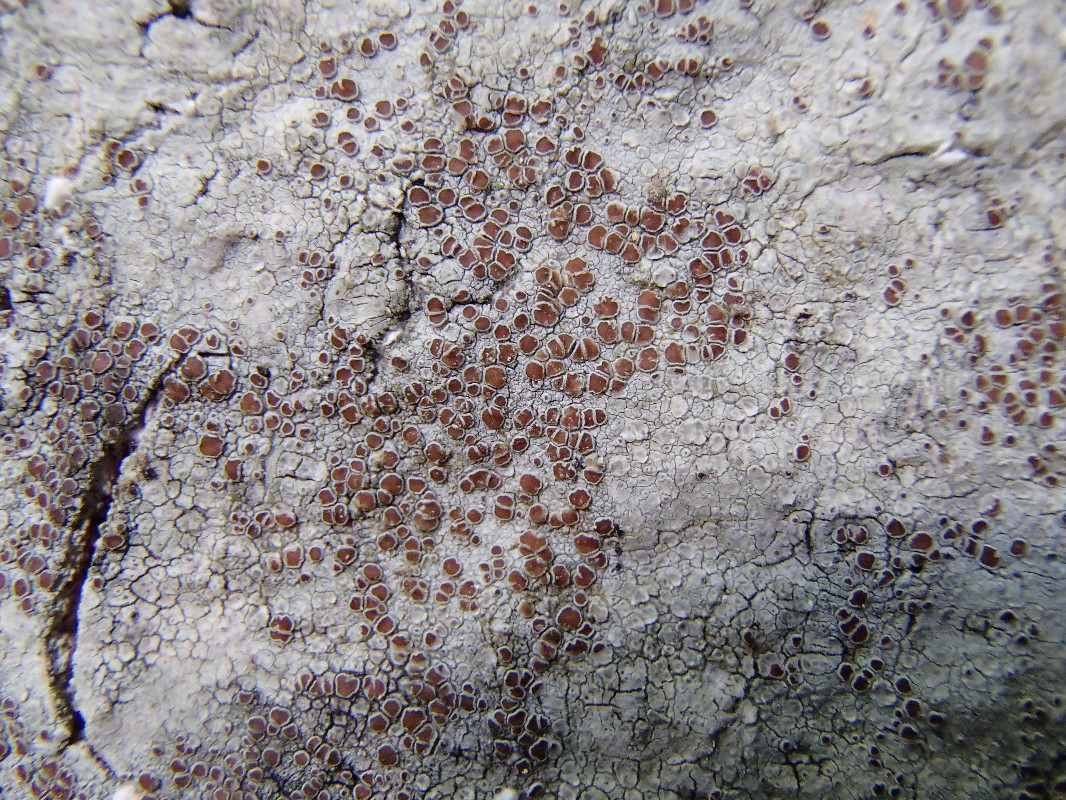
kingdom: Fungi
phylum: Ascomycota
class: Lecanoromycetes
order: Lecanorales
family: Lecanoraceae
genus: Lecanora
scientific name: Lecanora glabrata
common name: bøge-kantskivelav
